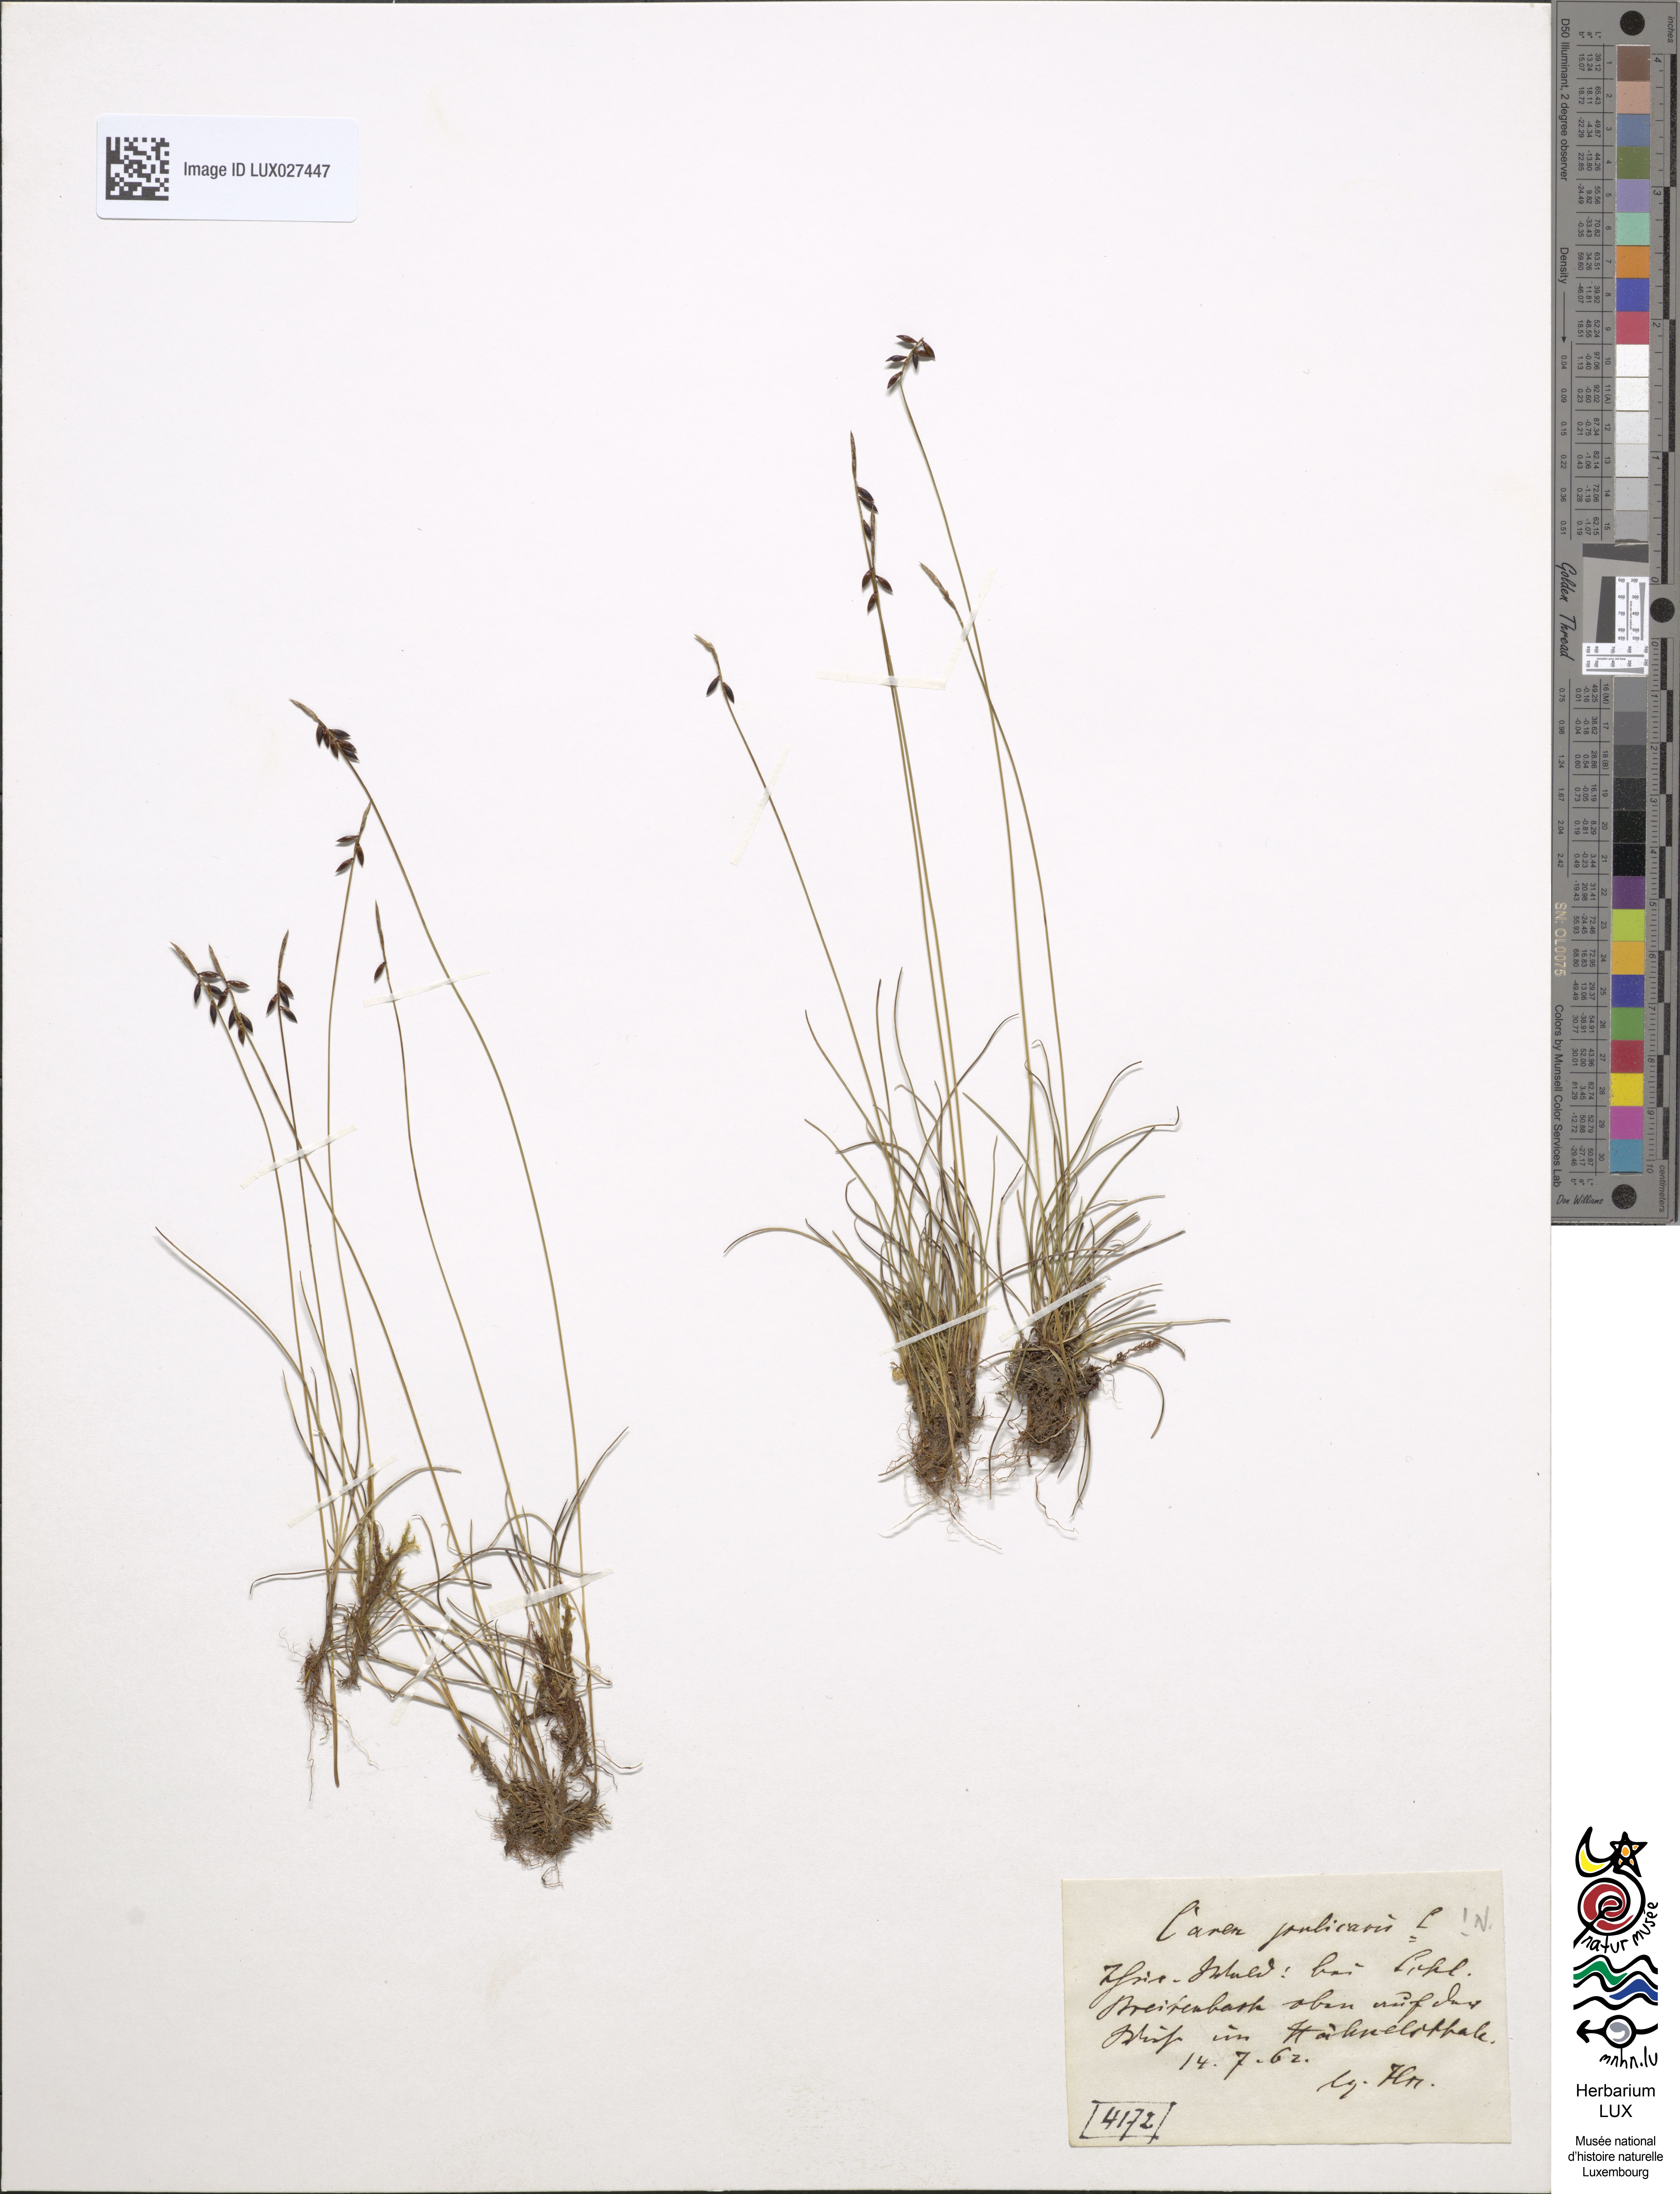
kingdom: Plantae
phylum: Tracheophyta
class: Liliopsida
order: Poales
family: Cyperaceae
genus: Carex
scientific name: Carex pulicaris
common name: Flea sedge
